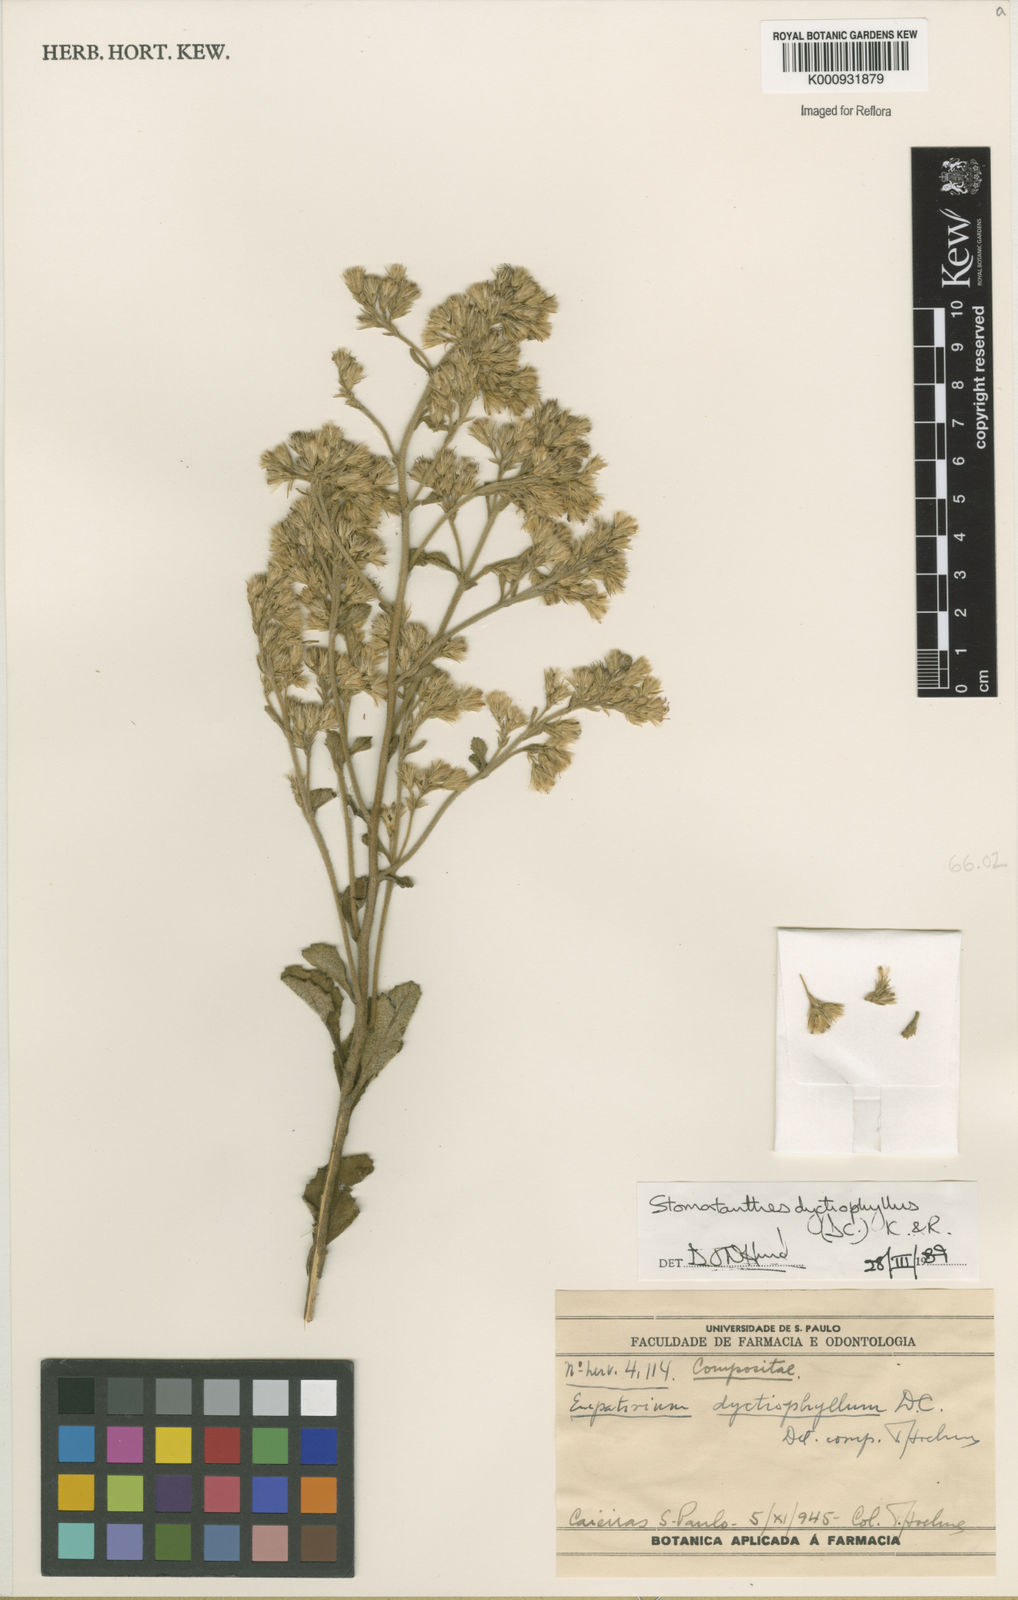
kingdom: Plantae
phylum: Tracheophyta
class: Magnoliopsida
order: Asterales
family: Asteraceae
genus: Stomatanthes
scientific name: Stomatanthes dictyophyllus
